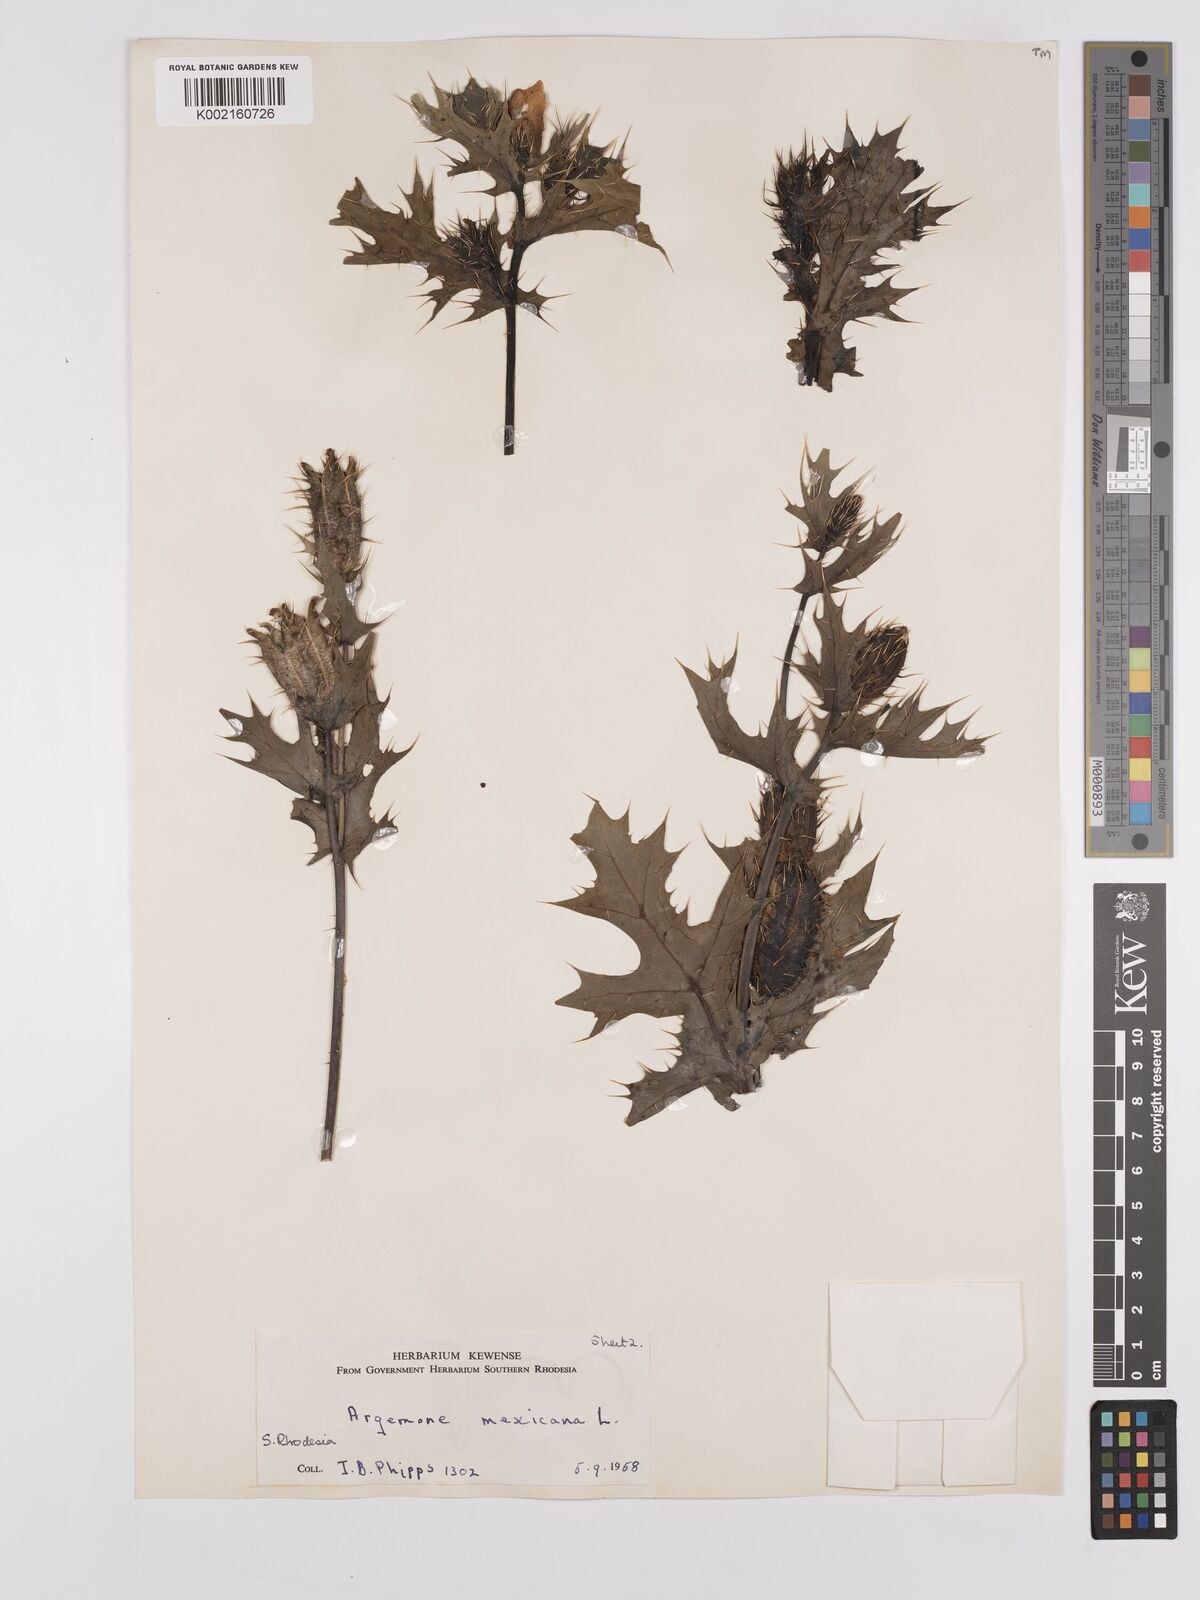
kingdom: Plantae
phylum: Tracheophyta
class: Magnoliopsida
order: Ranunculales
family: Papaveraceae
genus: Argemone
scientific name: Argemone mexicana
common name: Mexican poppy
